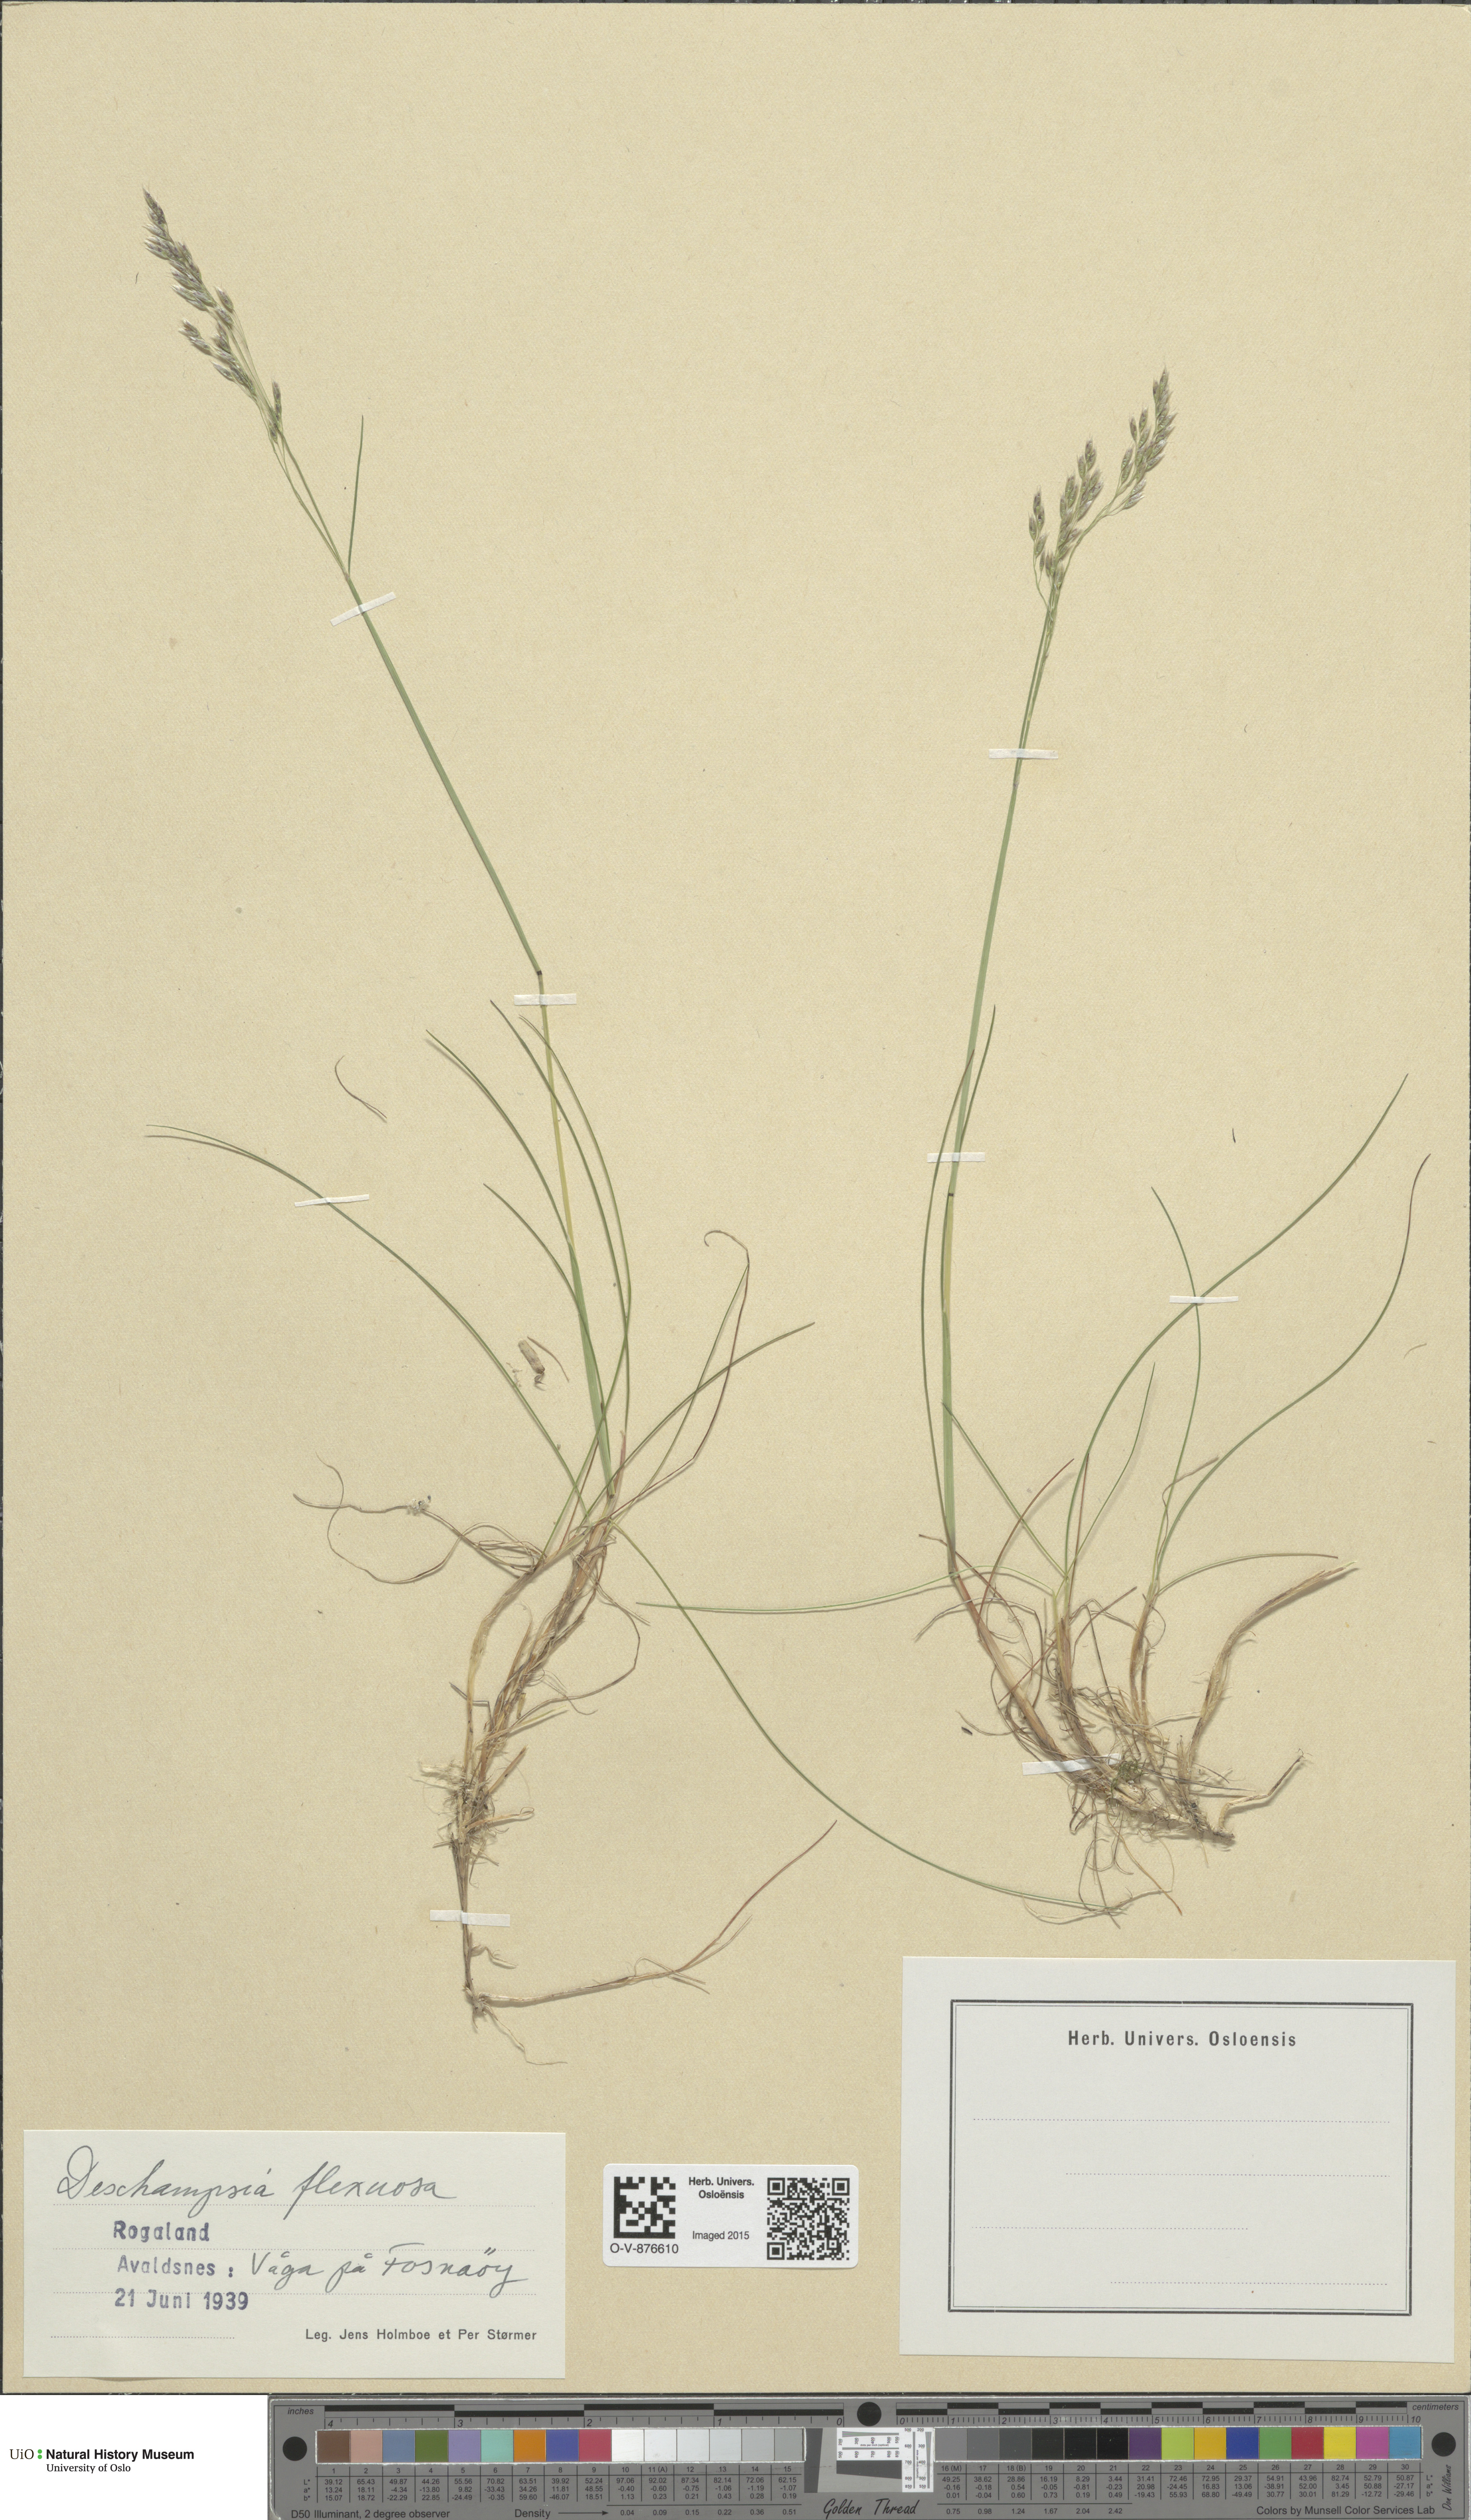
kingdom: Plantae
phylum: Tracheophyta
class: Liliopsida
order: Poales
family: Poaceae
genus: Avenella
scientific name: Avenella flexuosa
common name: Wavy hairgrass
